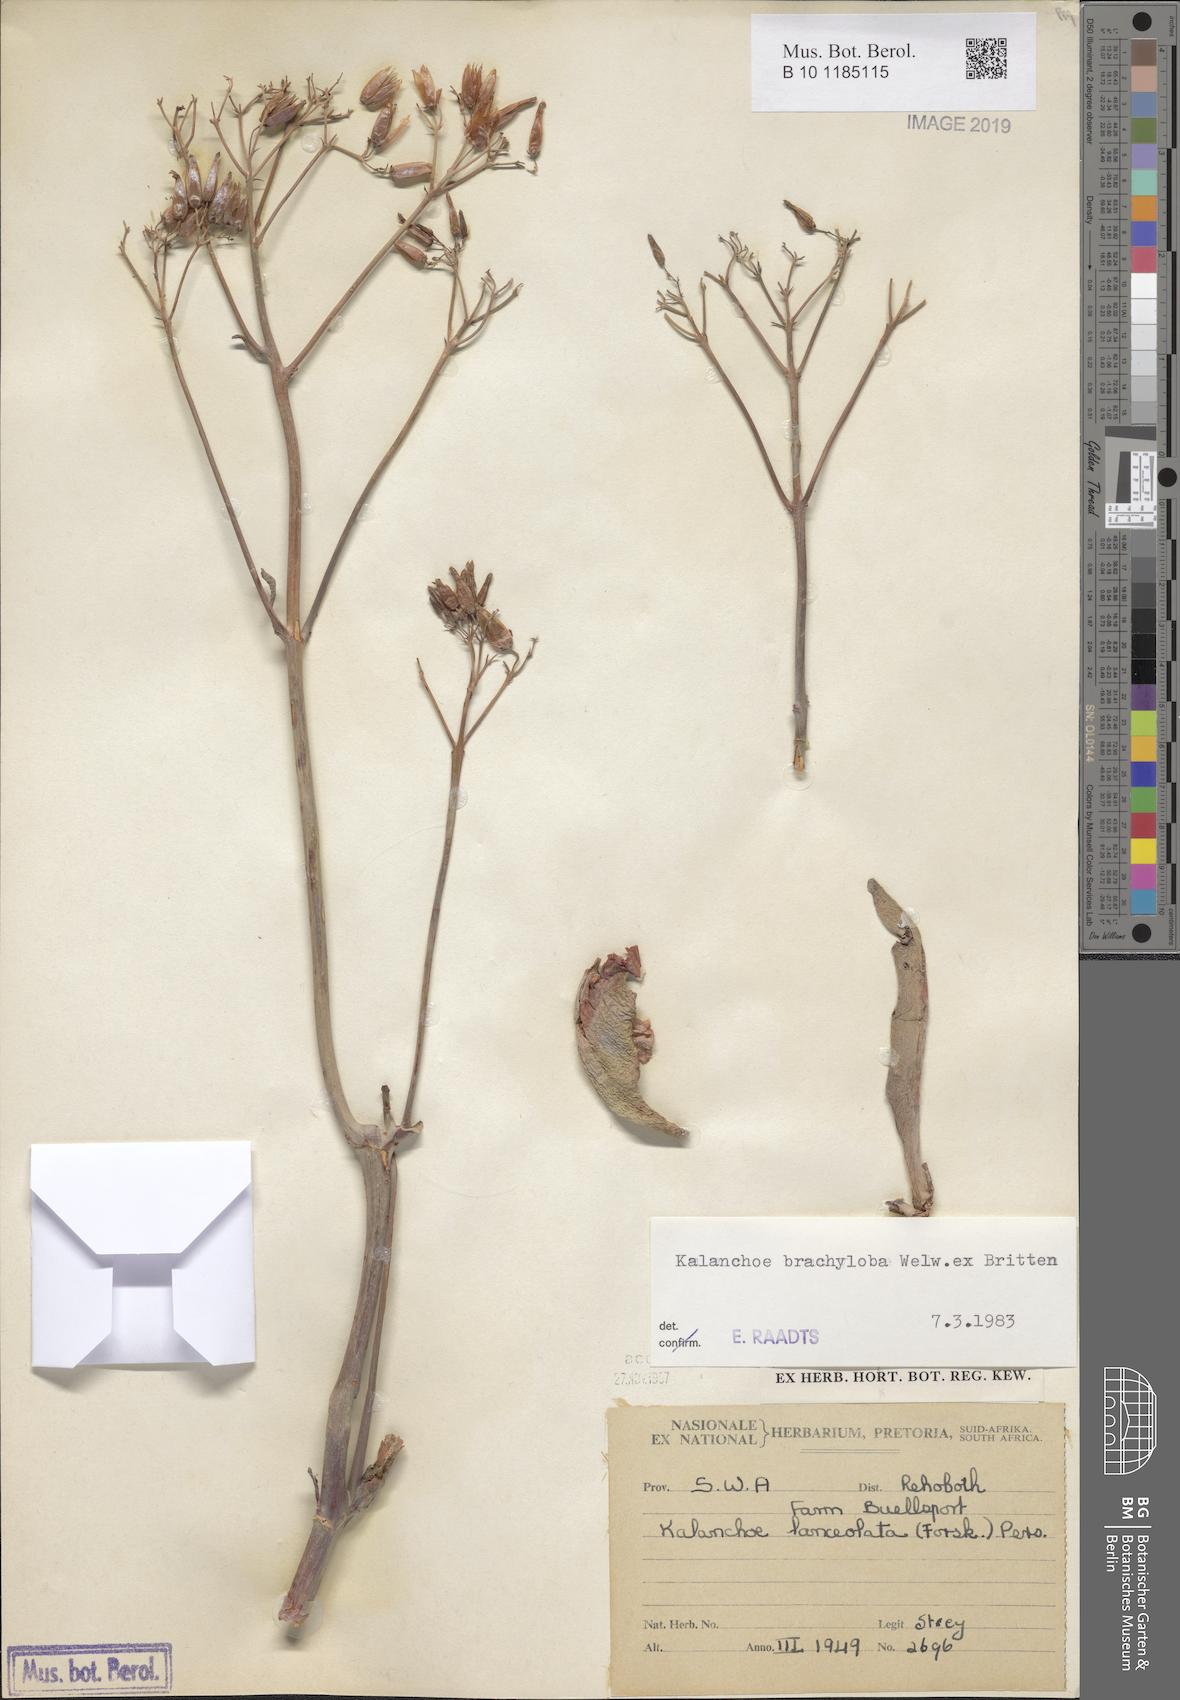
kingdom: Plantae
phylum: Tracheophyta
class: Magnoliopsida
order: Saxifragales
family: Crassulaceae
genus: Kalanchoe
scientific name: Kalanchoe brachyloba
